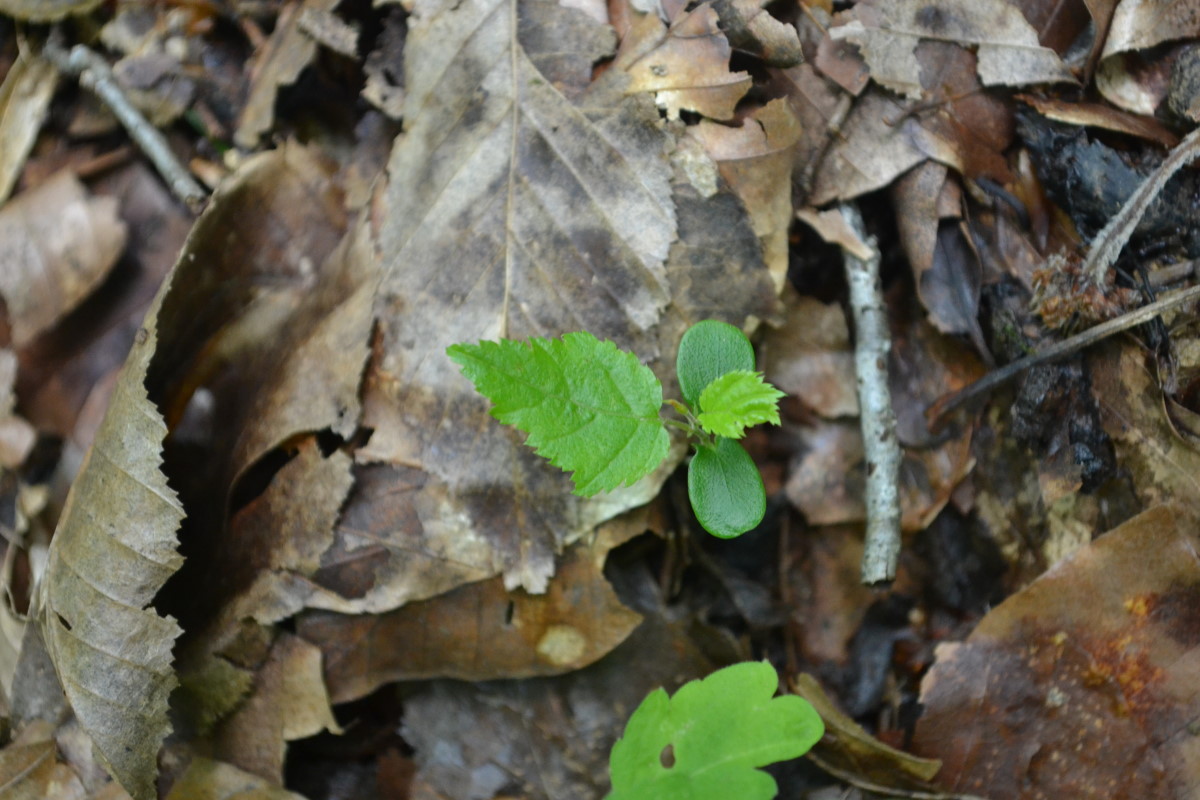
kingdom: Plantae
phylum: Tracheophyta
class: Magnoliopsida
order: Fagales
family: Fagaceae
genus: Fagus
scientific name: Fagus
